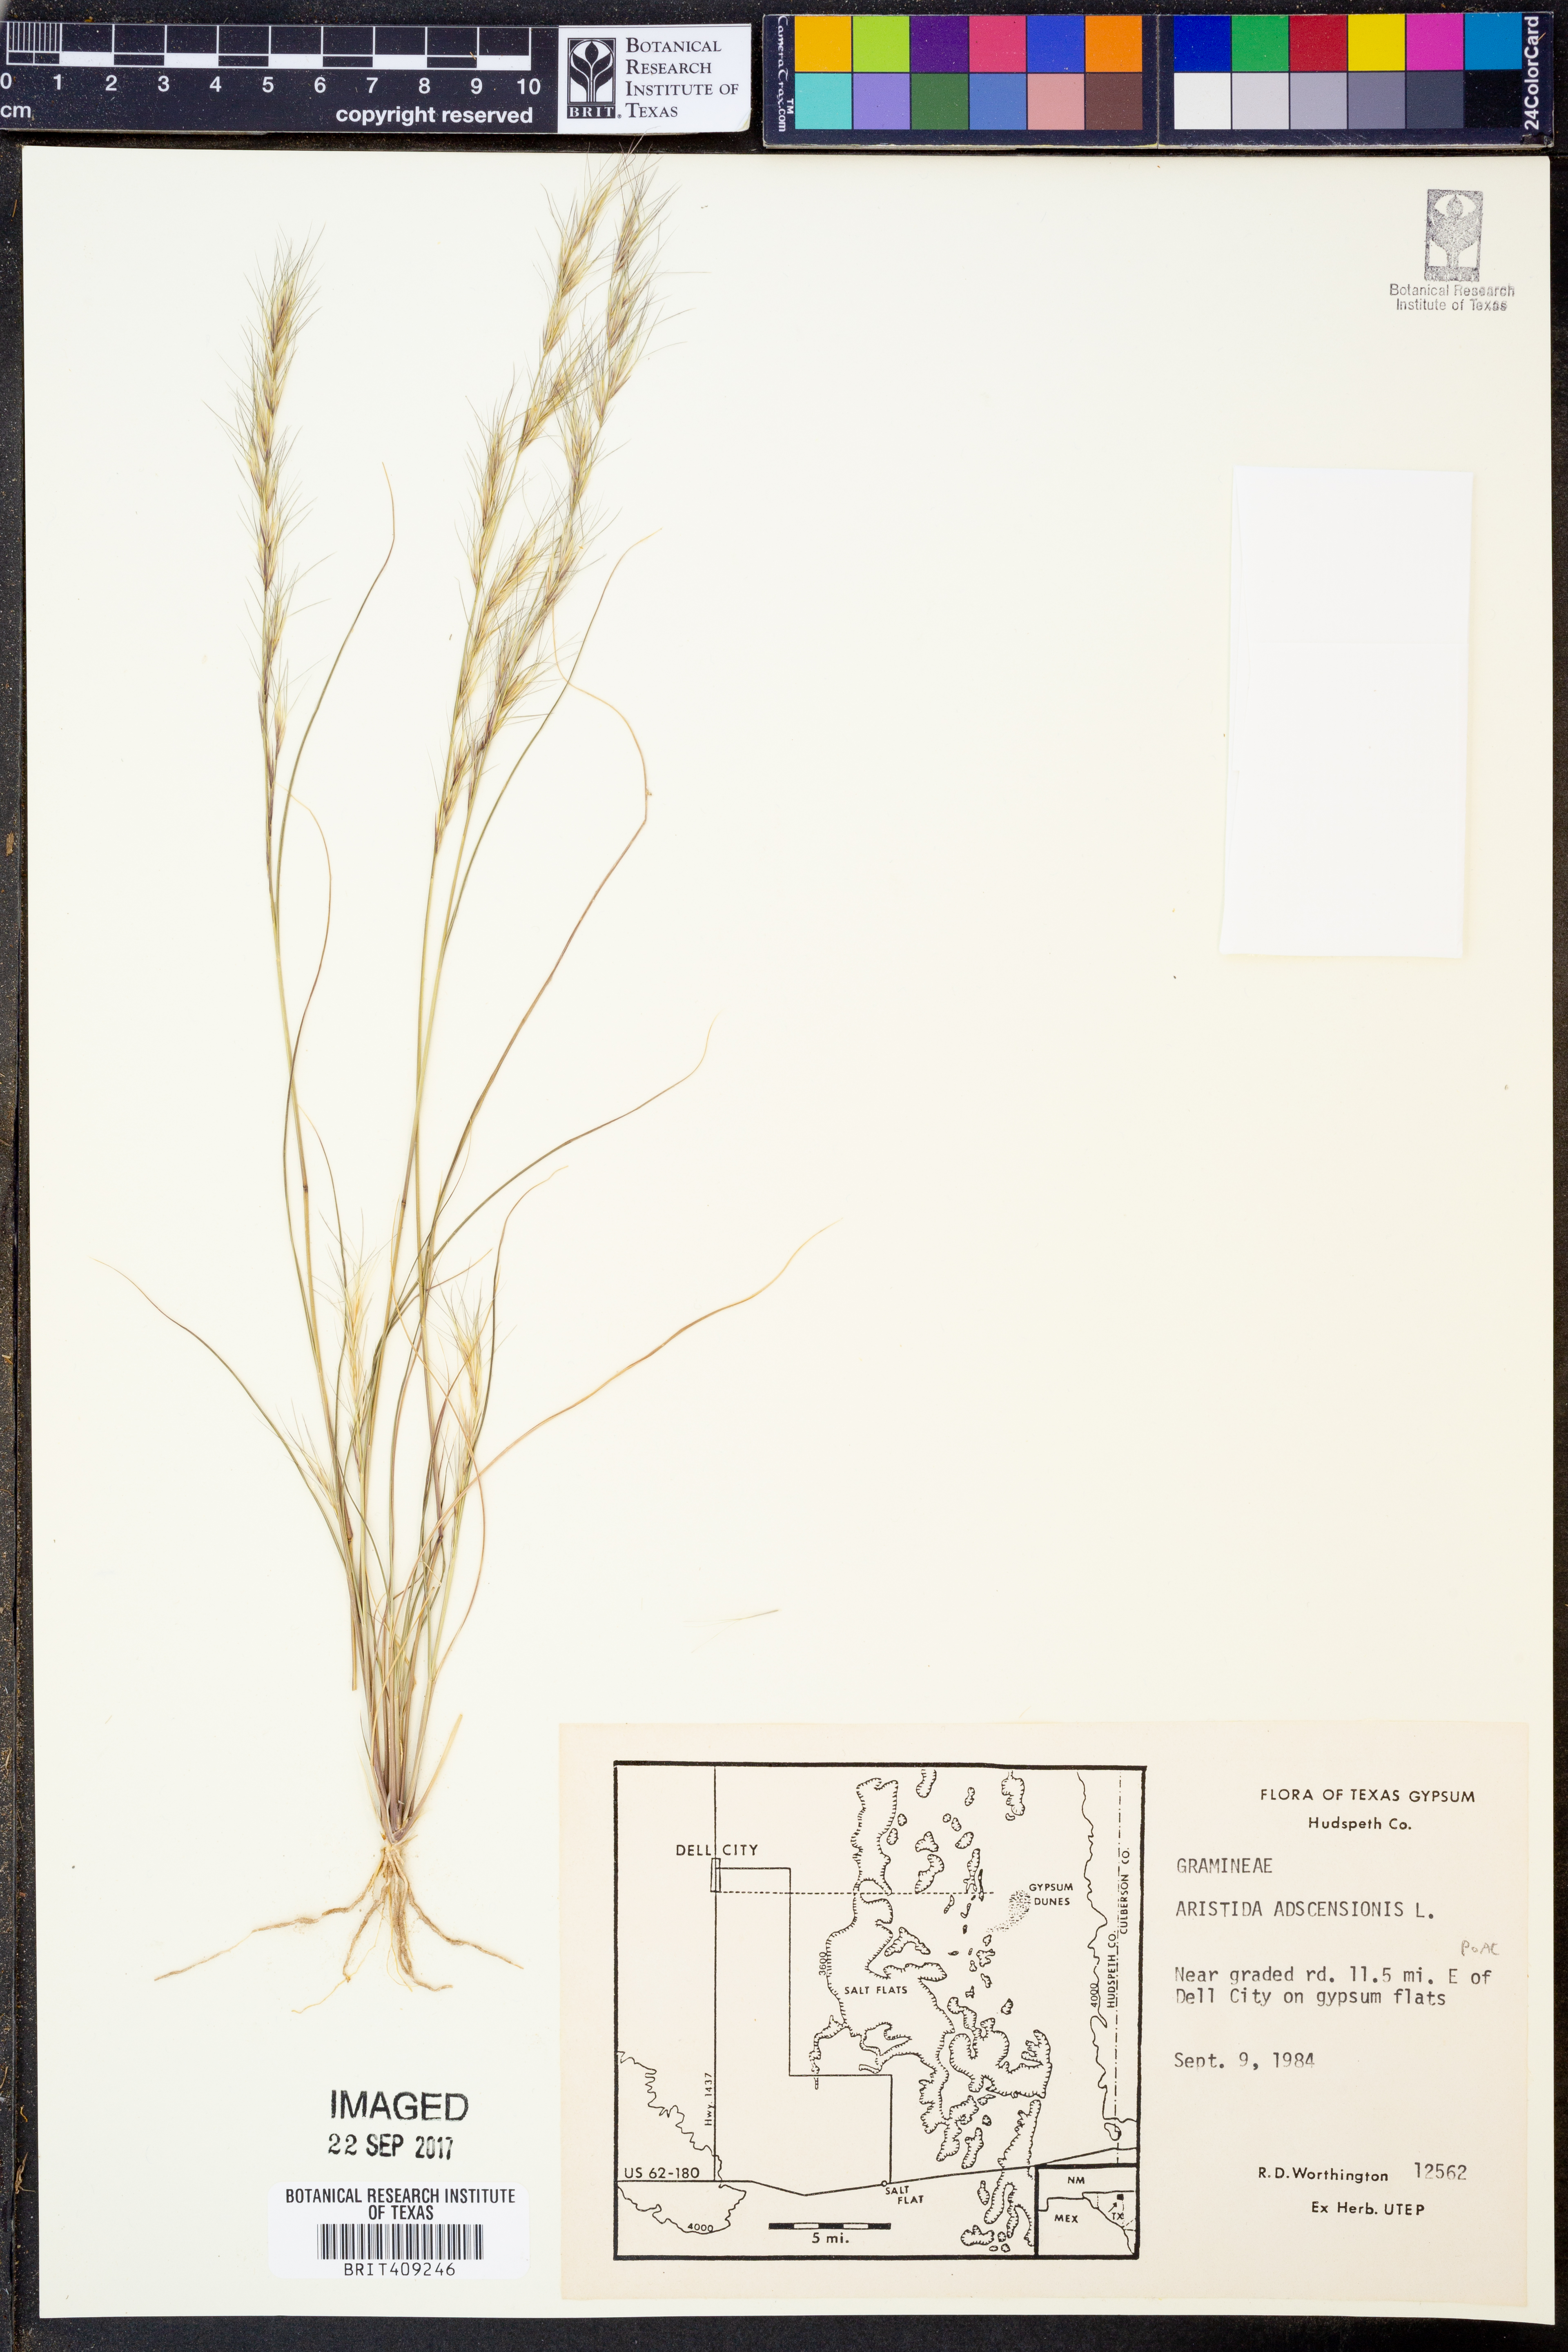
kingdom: Plantae
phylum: Tracheophyta
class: Liliopsida
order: Poales
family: Poaceae
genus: Aristida
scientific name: Aristida adscensionis
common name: Sixweeks threeawn
